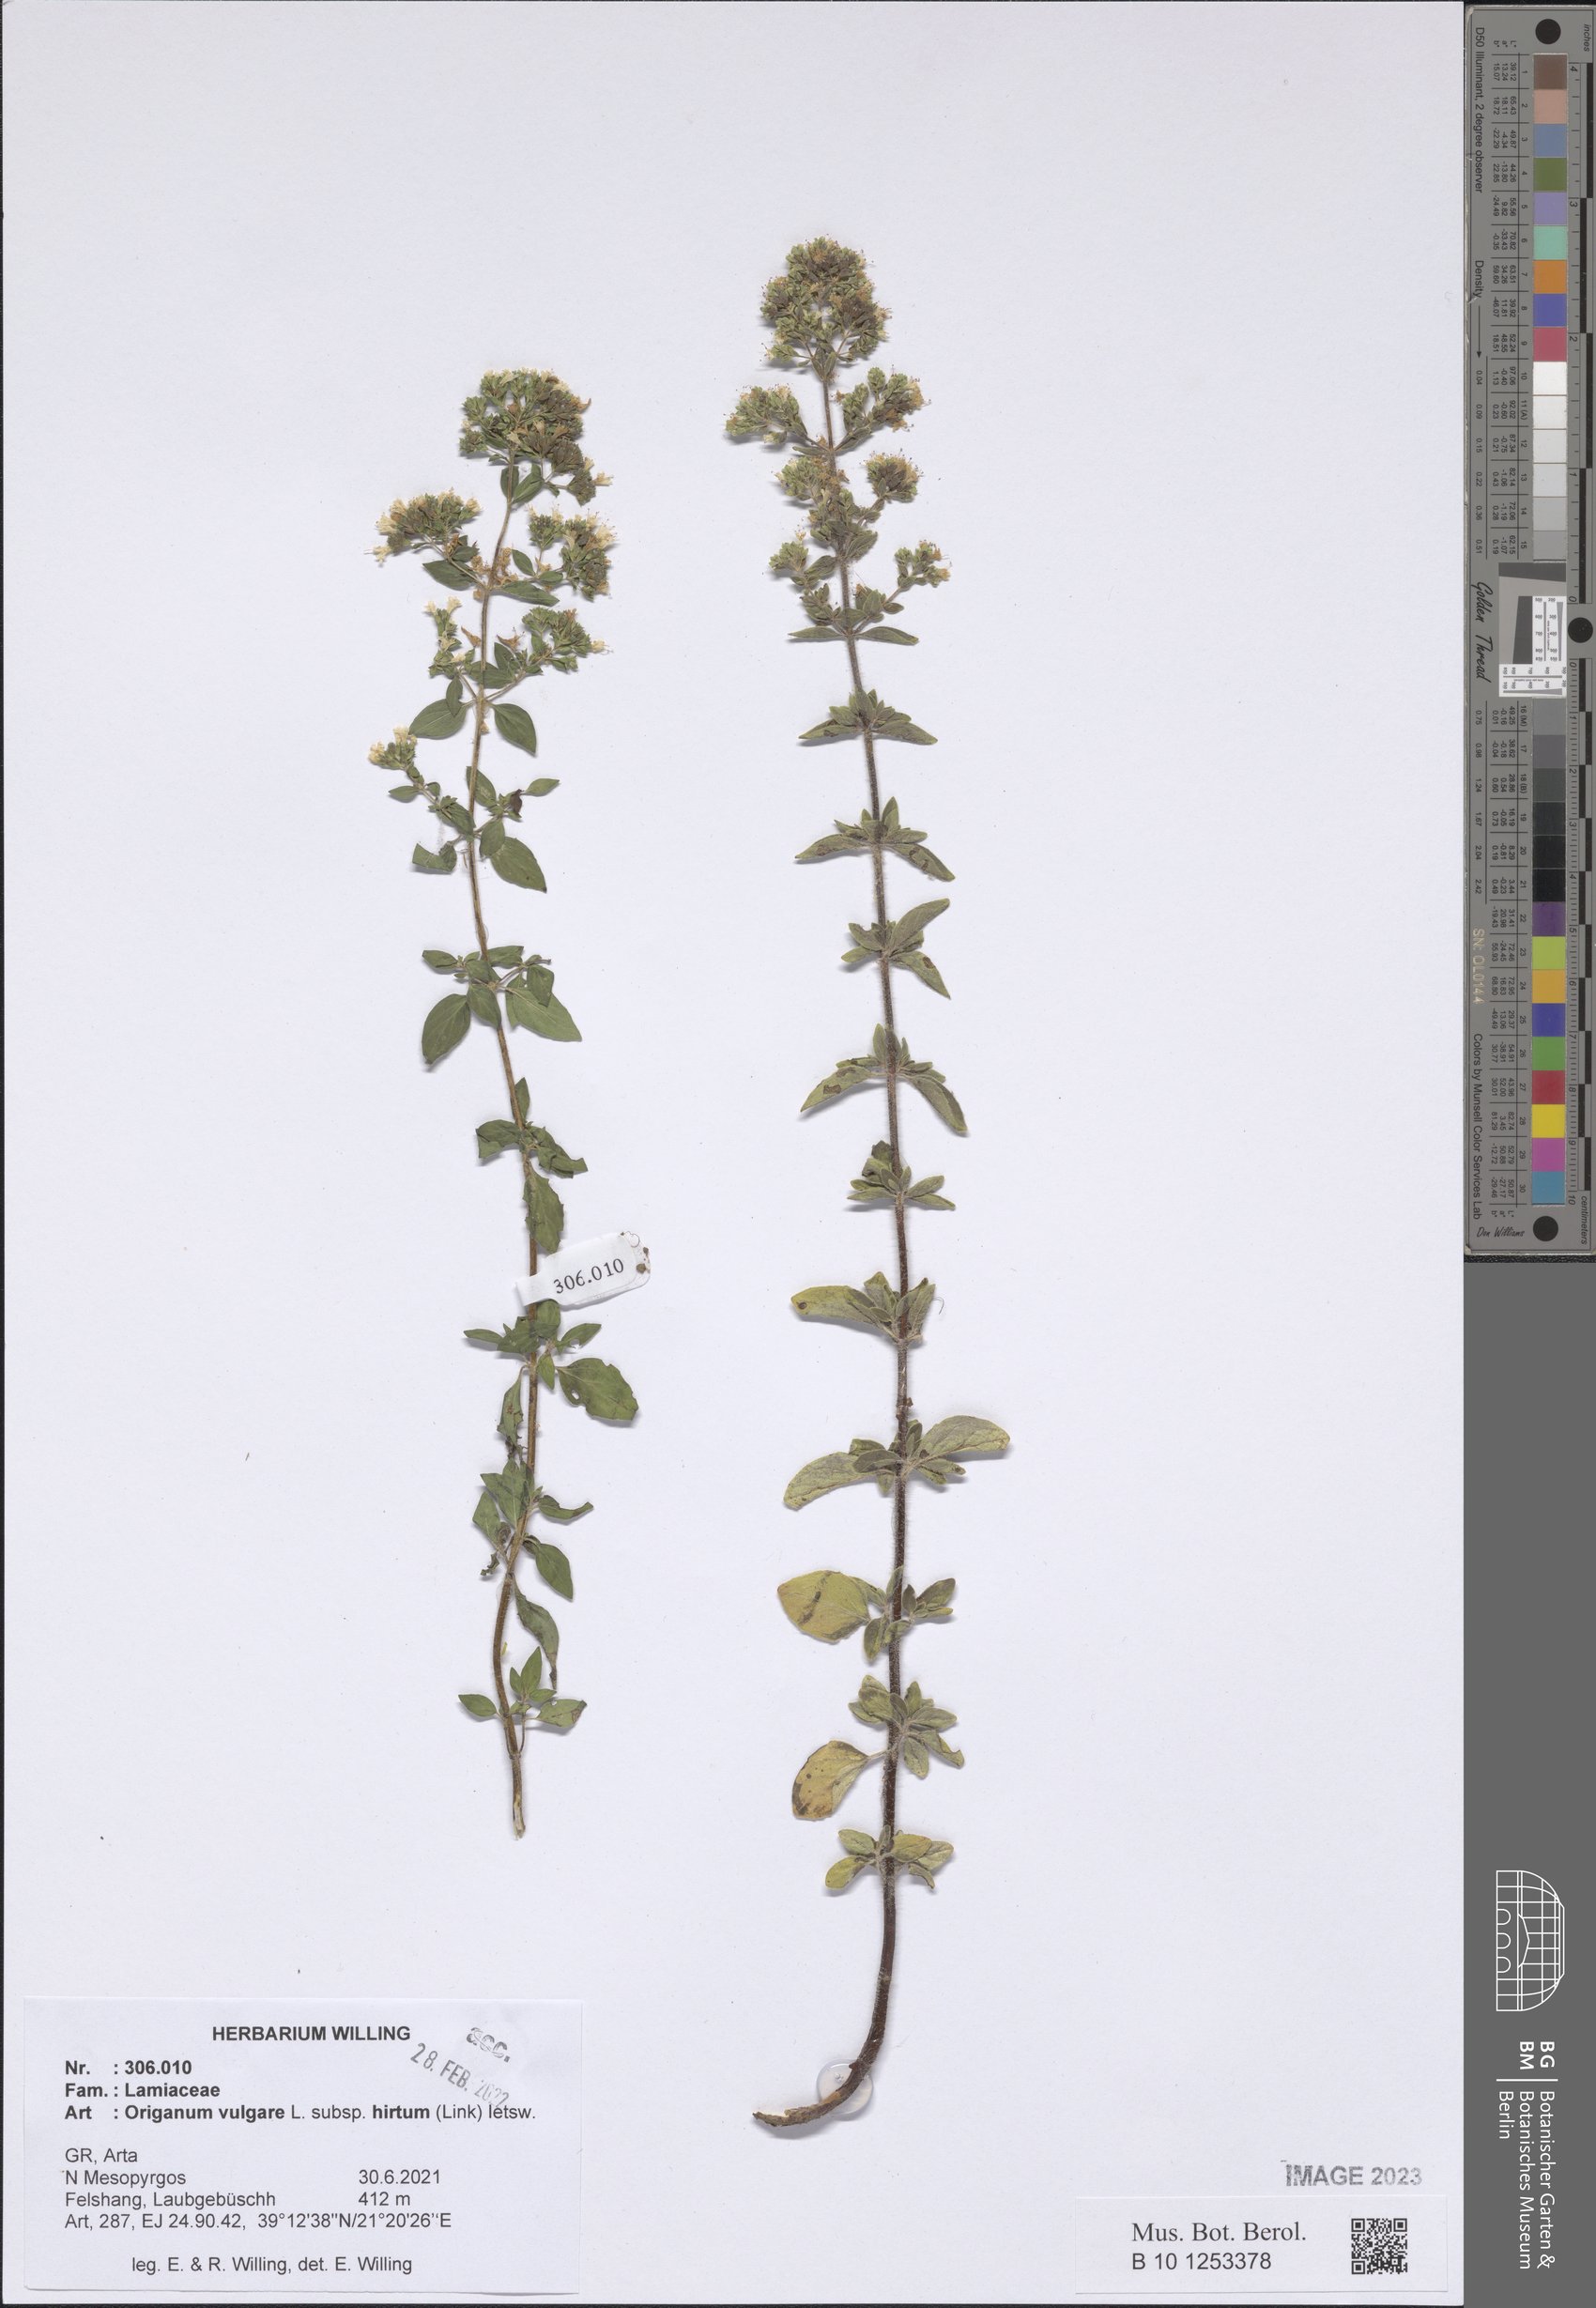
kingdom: Plantae
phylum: Tracheophyta
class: Magnoliopsida
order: Lamiales
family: Lamiaceae
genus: Origanum
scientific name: Origanum vulgare
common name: Wild marjoram
